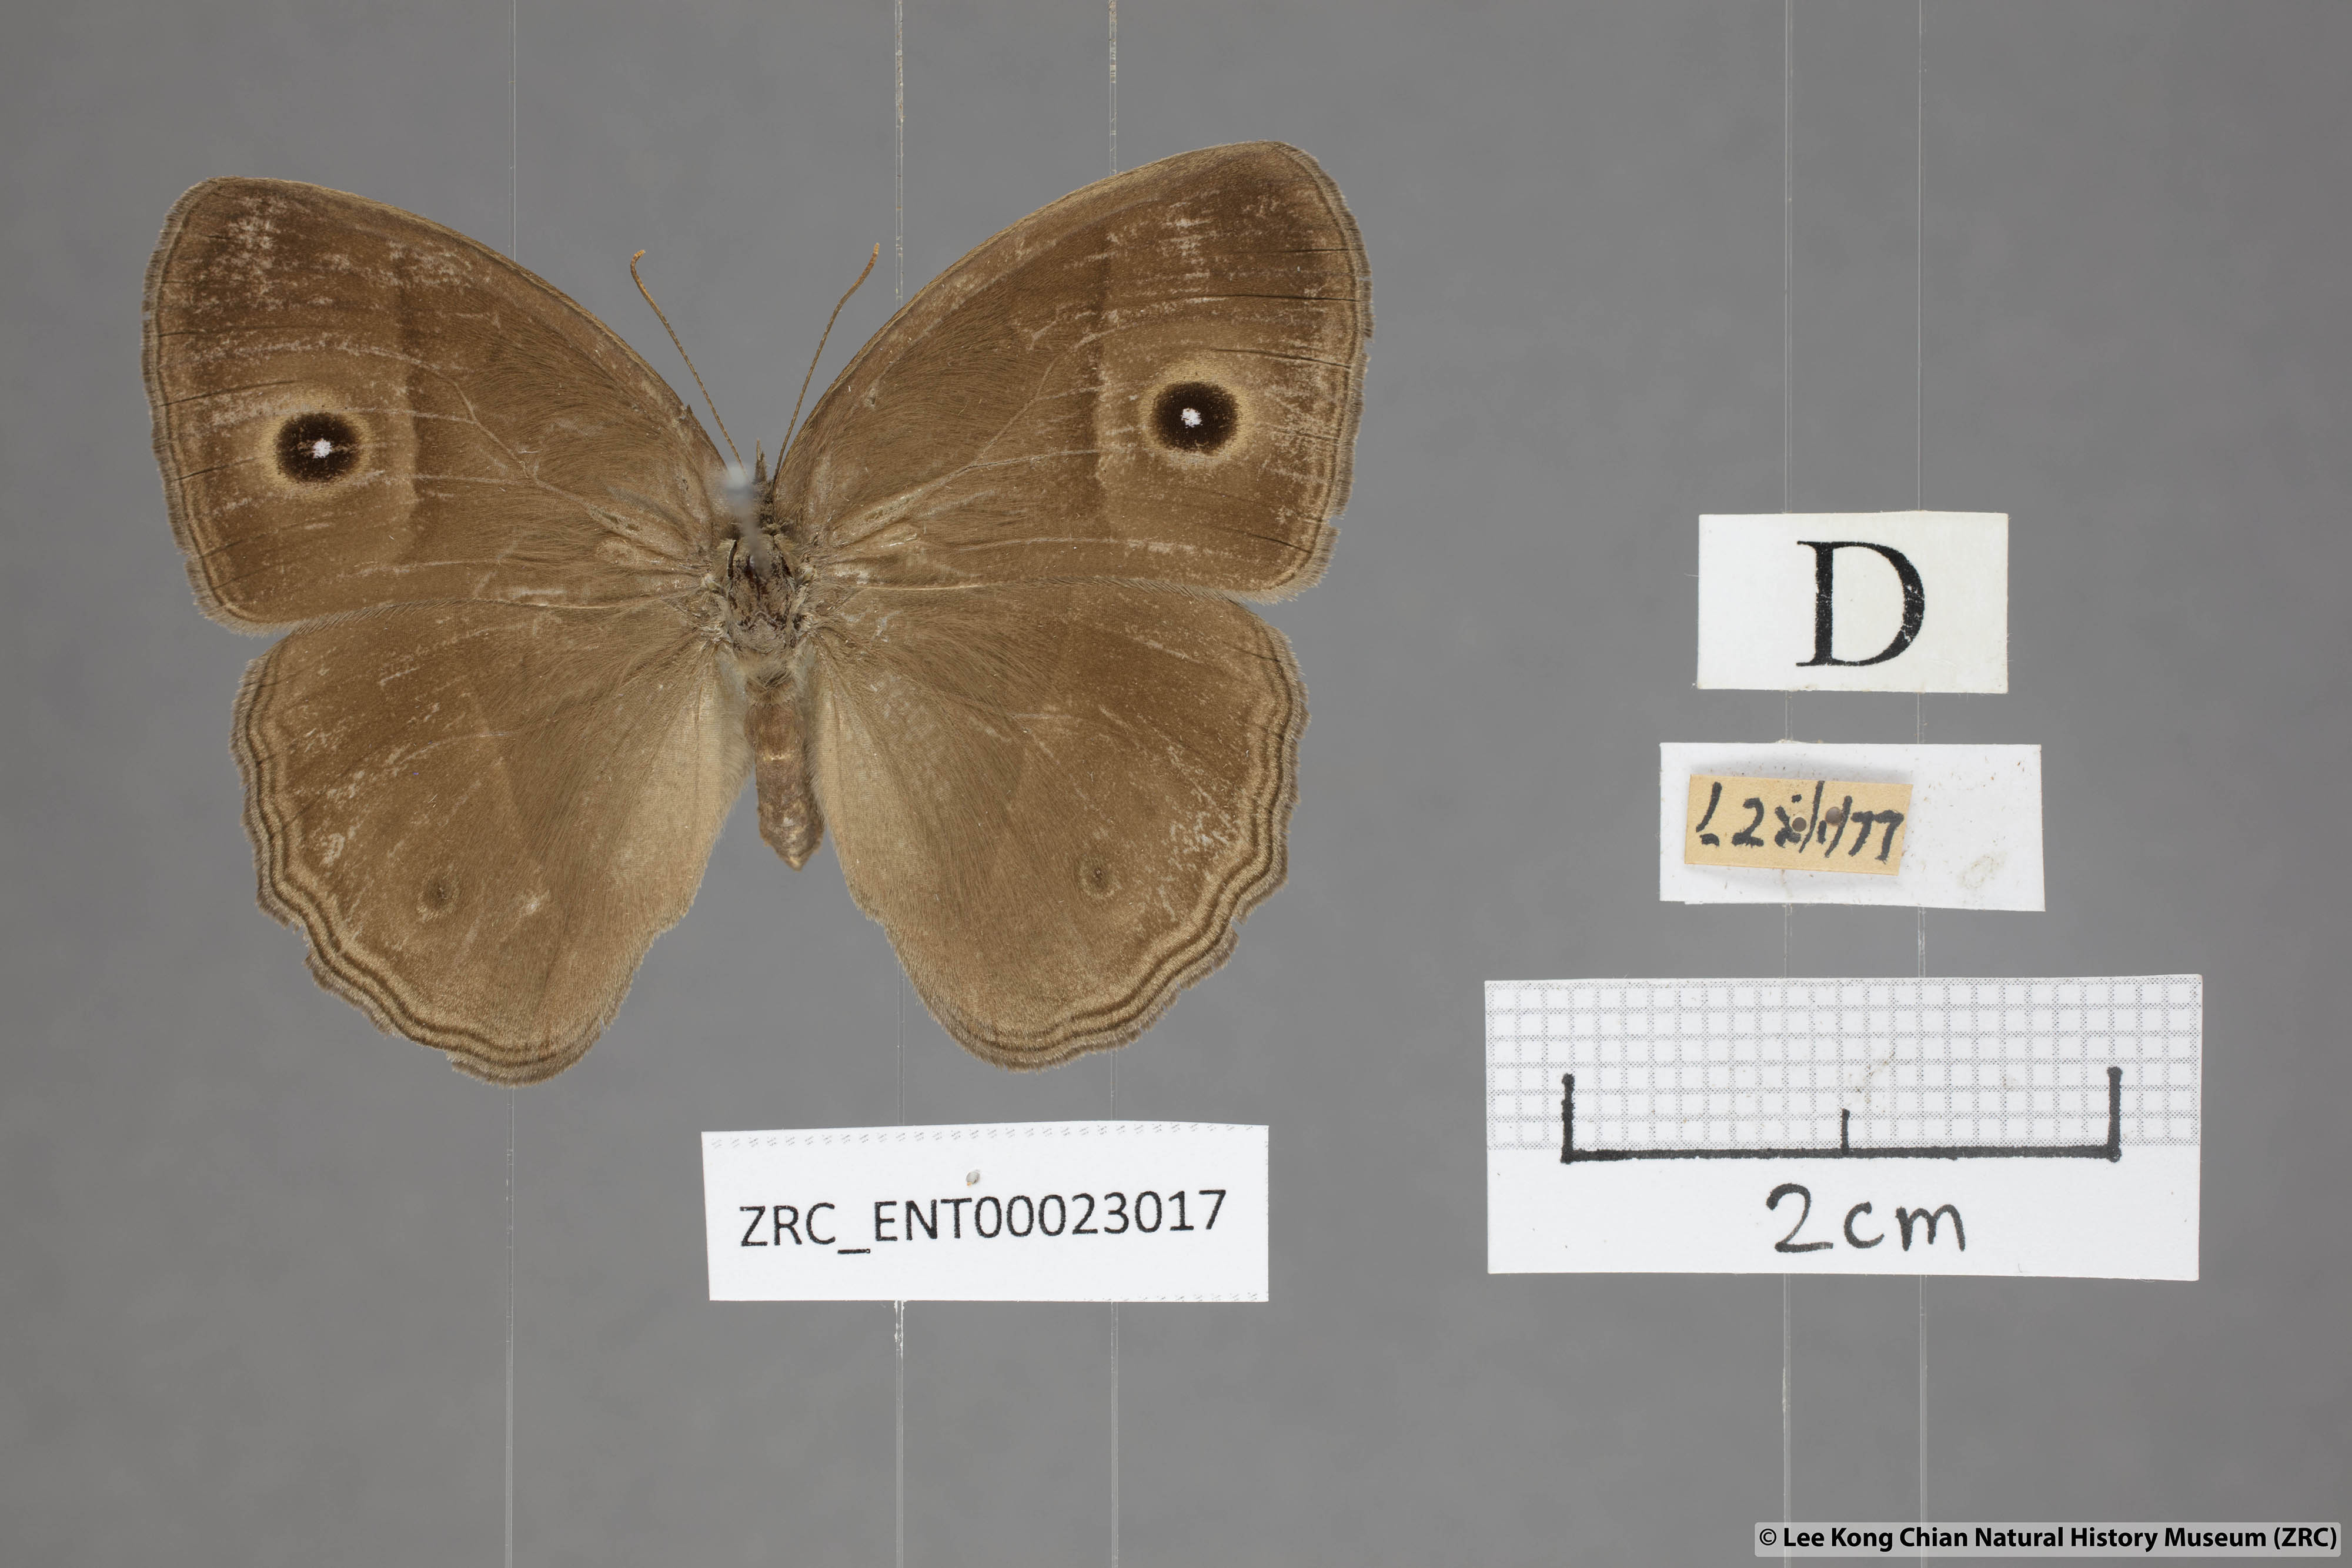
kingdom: Animalia
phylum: Arthropoda
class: Insecta
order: Lepidoptera
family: Nymphalidae
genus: Mycalesis
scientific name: Mycalesis visala
